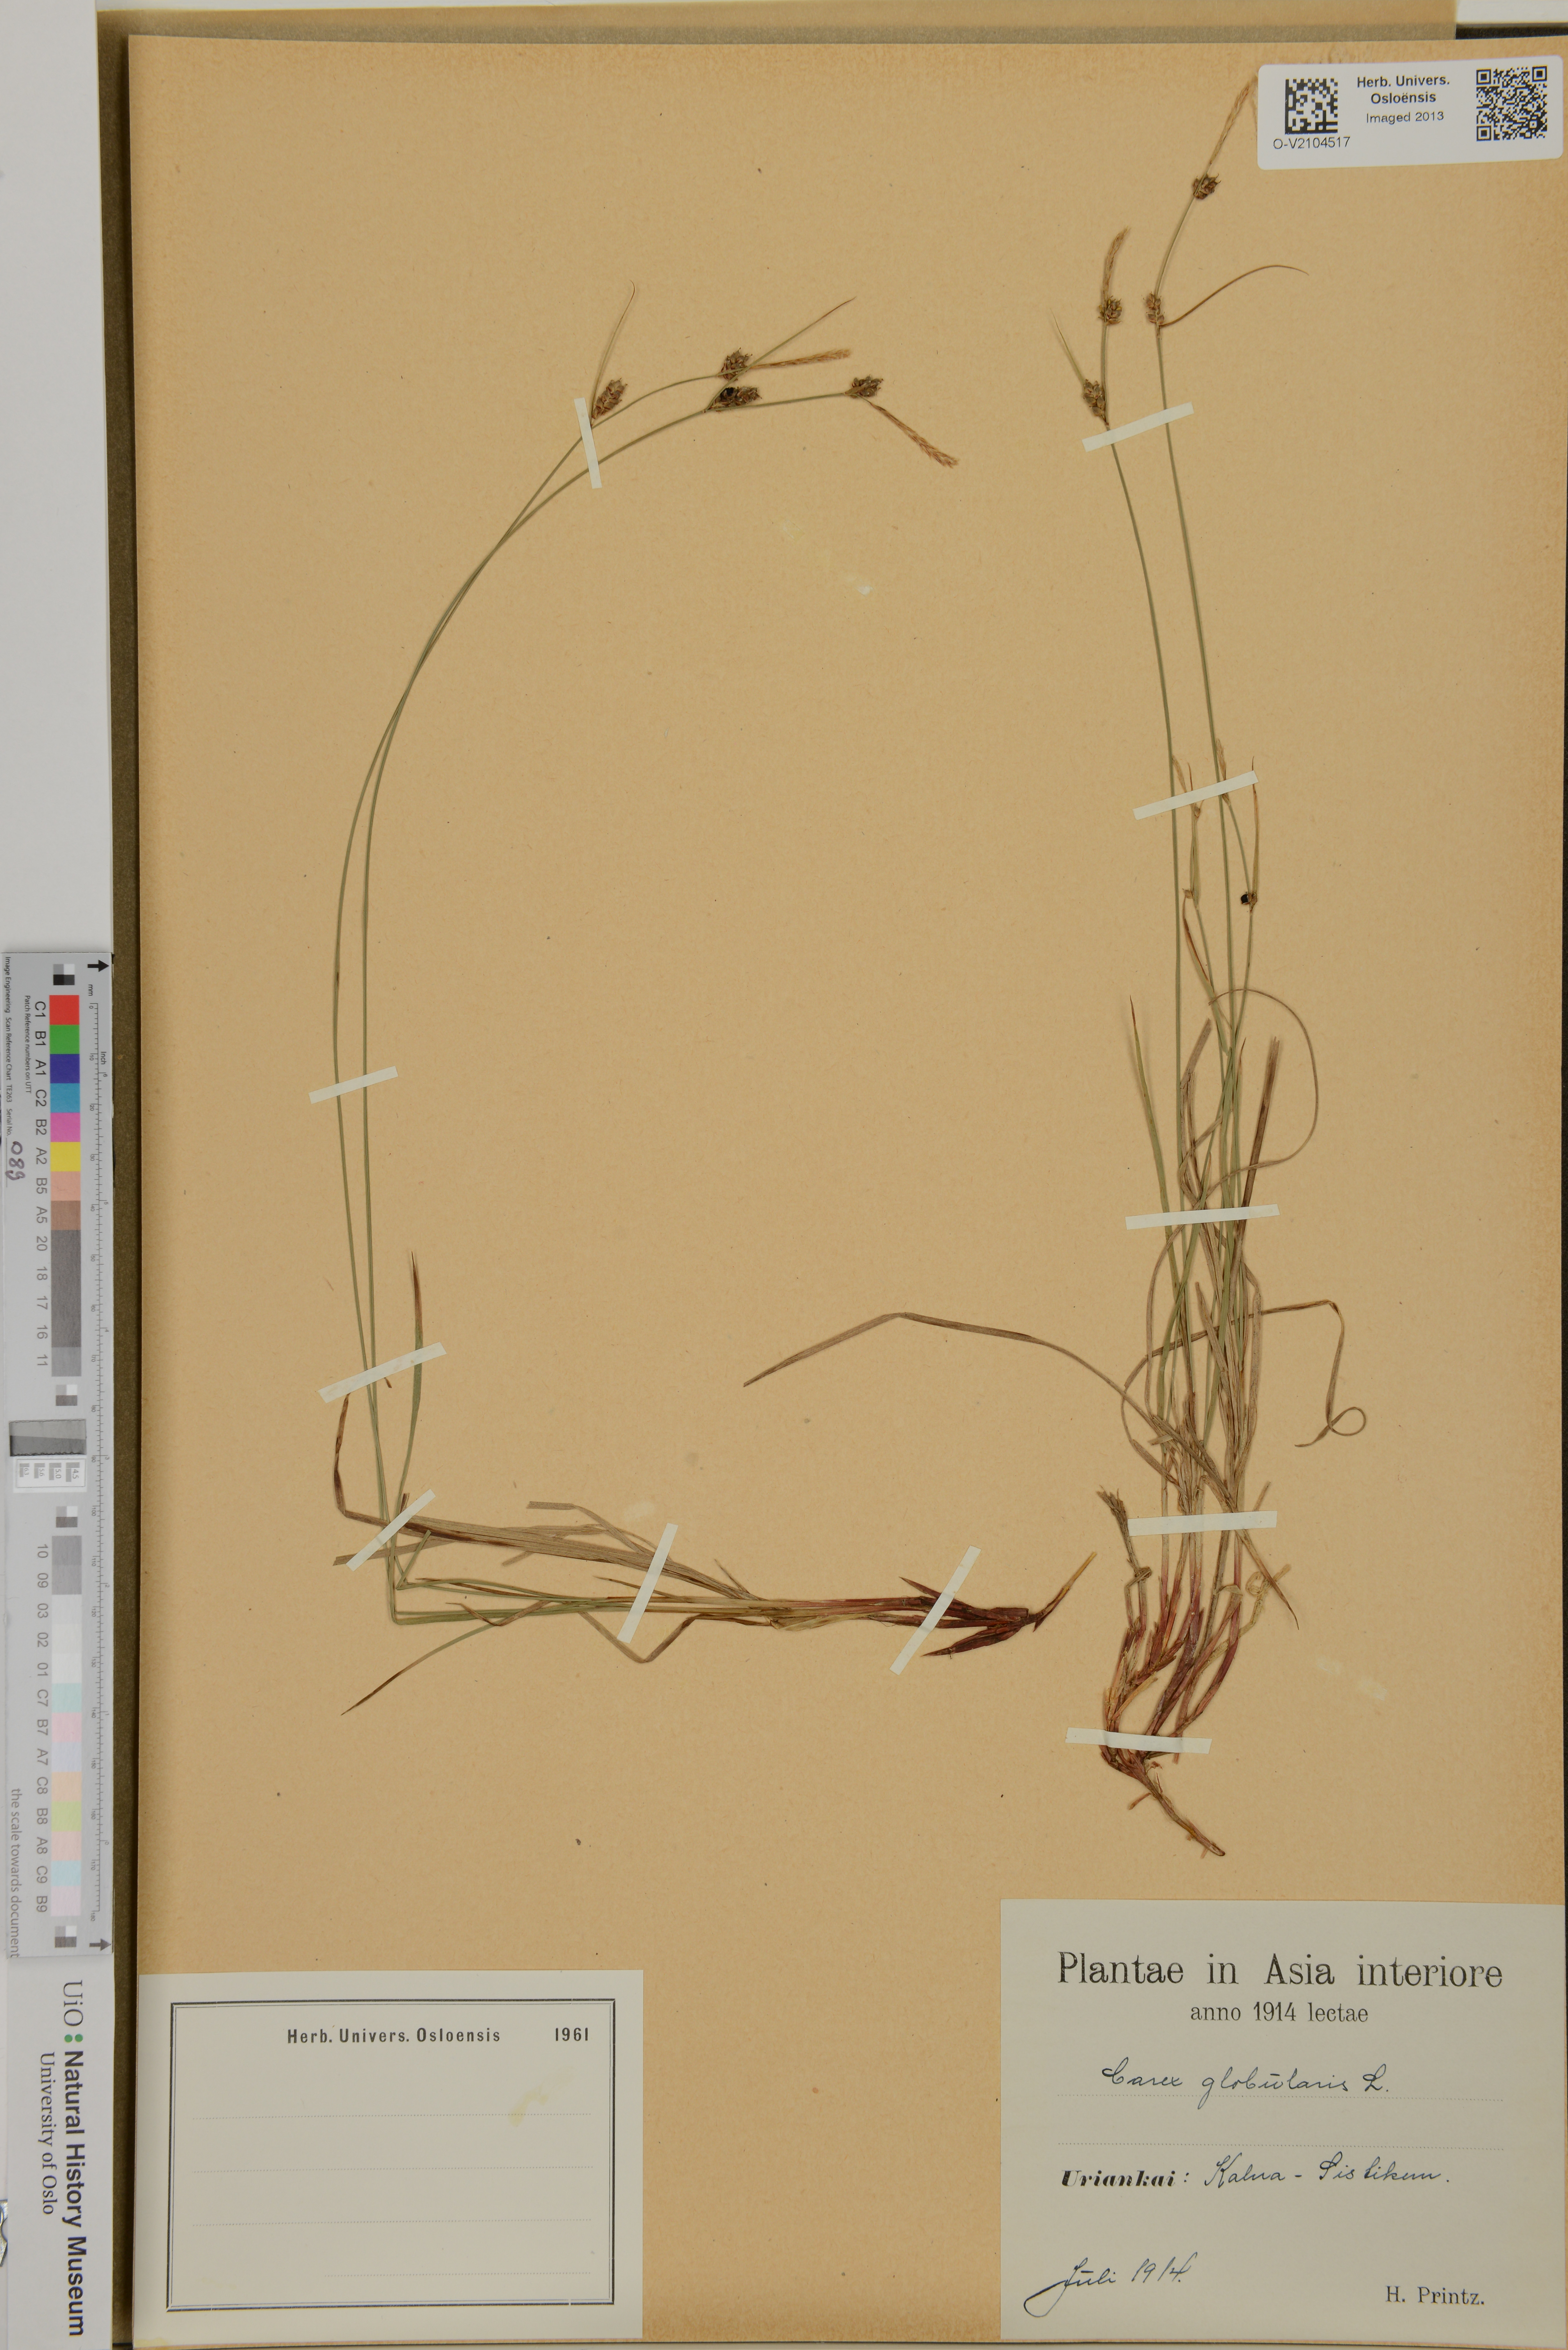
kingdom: Plantae
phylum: Tracheophyta
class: Liliopsida
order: Poales
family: Cyperaceae
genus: Carex
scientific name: Carex globularis
